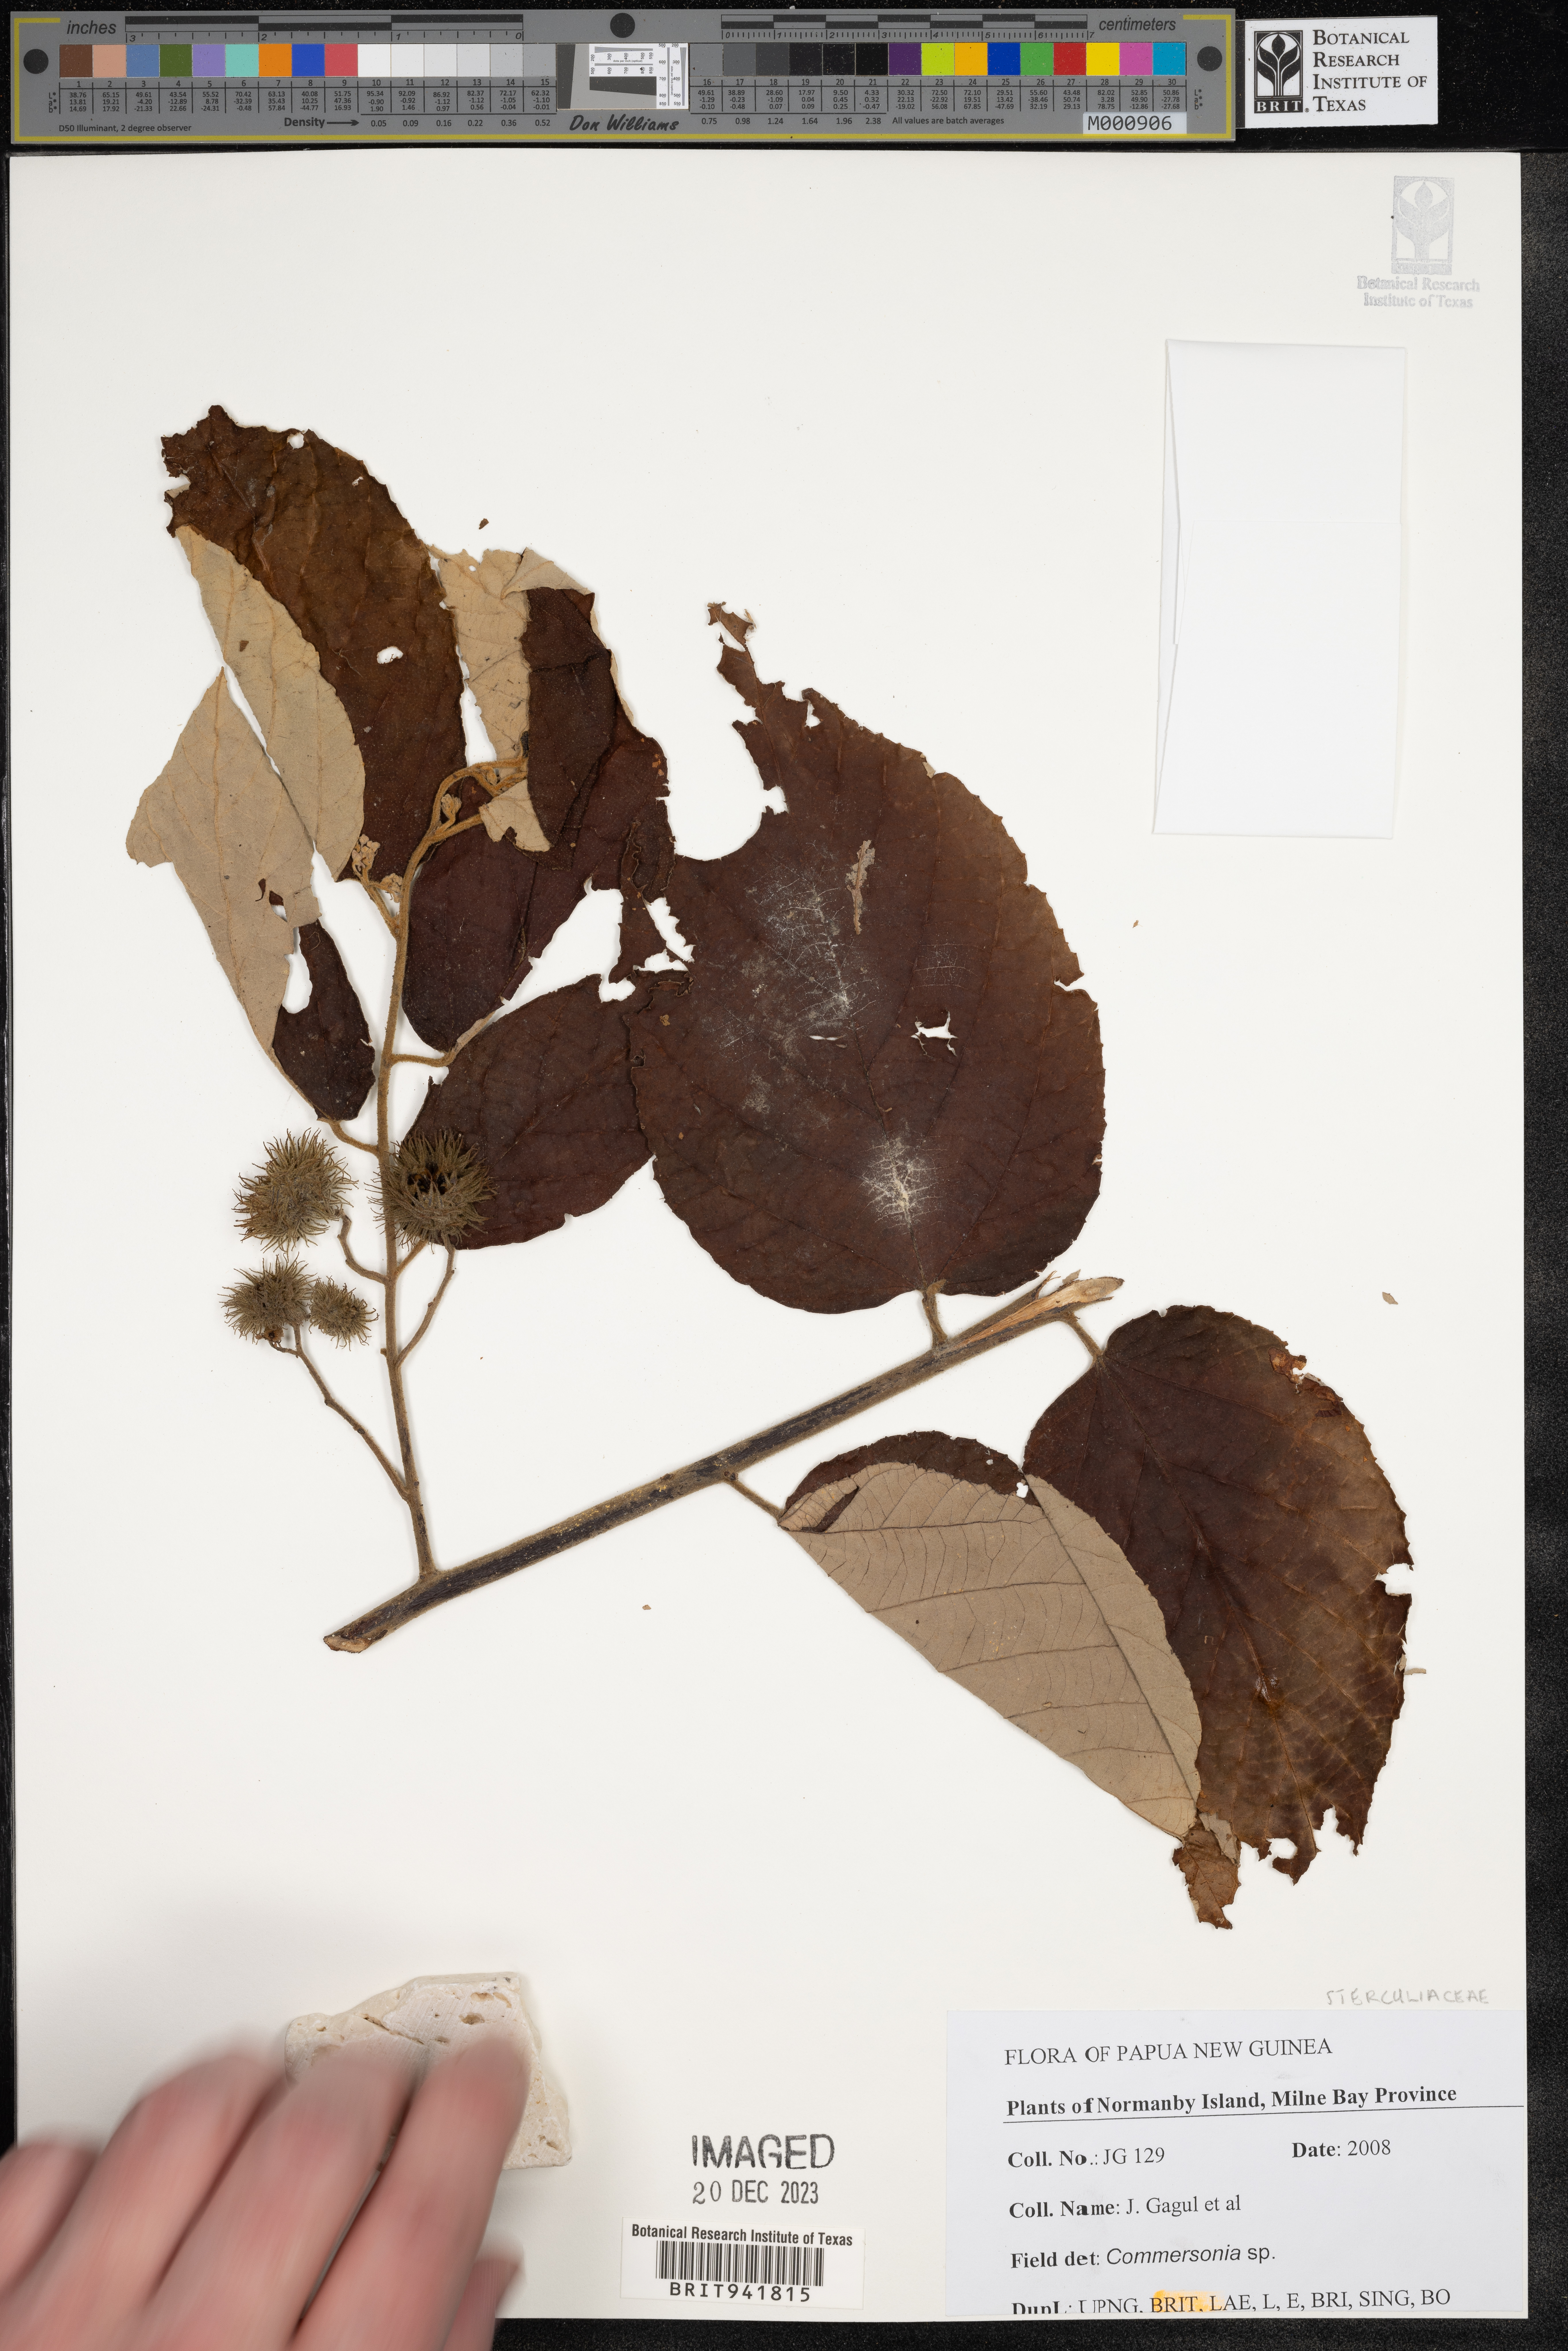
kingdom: Plantae
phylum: Tracheophyta
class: Magnoliopsida
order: Malvales
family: Malvaceae
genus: Commersonia
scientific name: Commersonia
